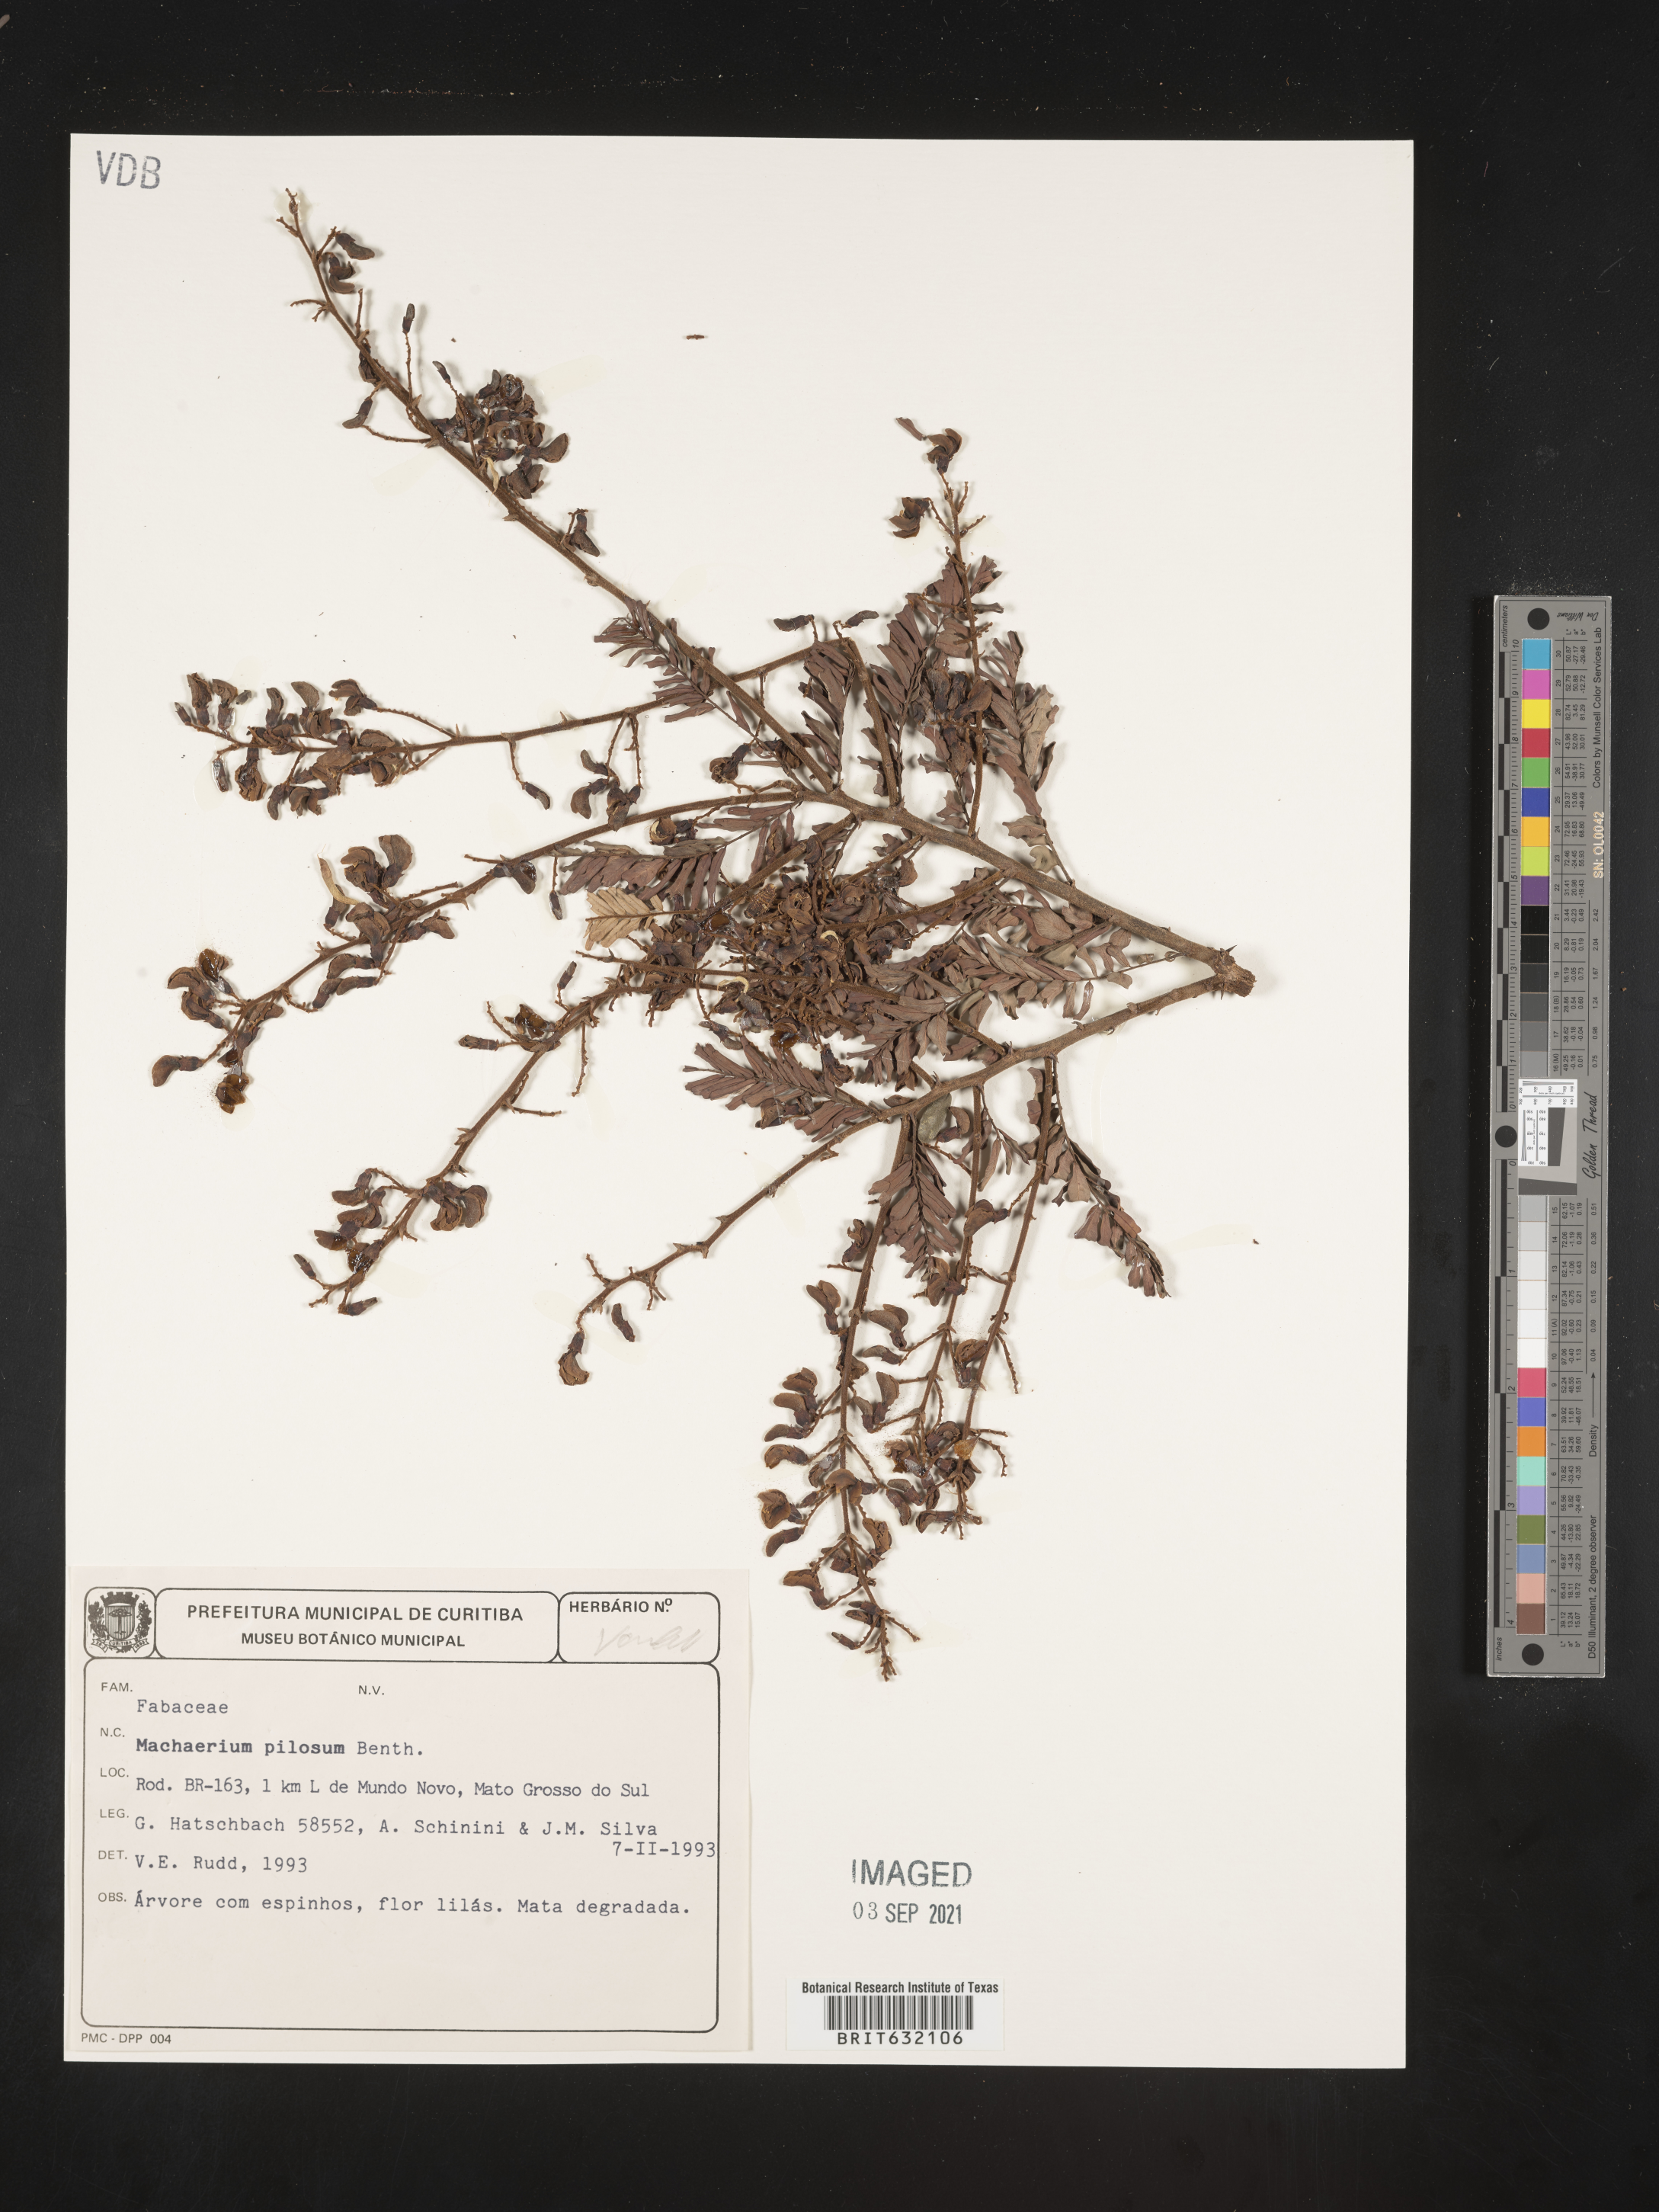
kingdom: Plantae
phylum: Tracheophyta
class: Magnoliopsida
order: Fabales
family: Fabaceae
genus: Machaerium
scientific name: Machaerium
